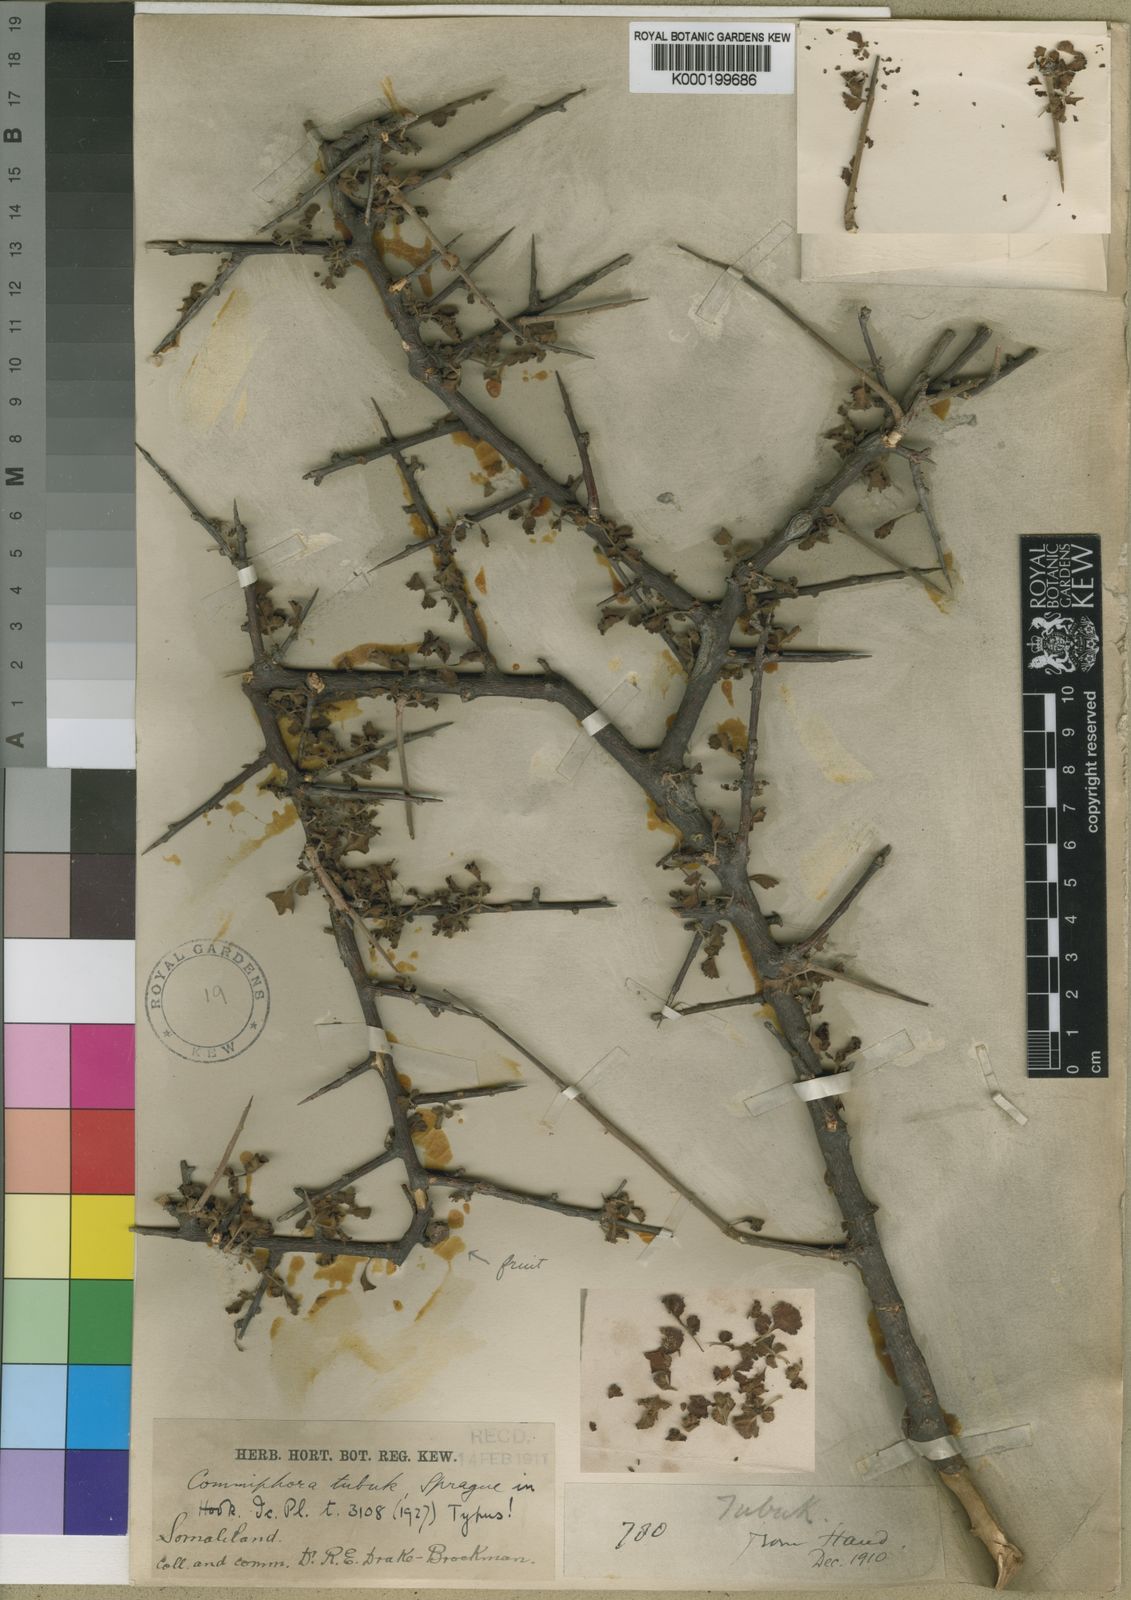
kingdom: Plantae
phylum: Tracheophyta
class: Magnoliopsida
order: Sapindales
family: Burseraceae
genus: Commiphora
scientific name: Commiphora africana
